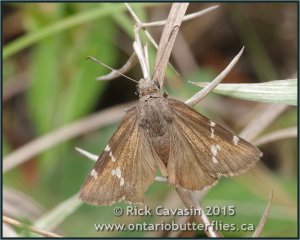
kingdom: Animalia
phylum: Arthropoda
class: Insecta
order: Lepidoptera
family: Hesperiidae
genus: Autochton
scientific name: Autochton
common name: Southern Cloudywing
